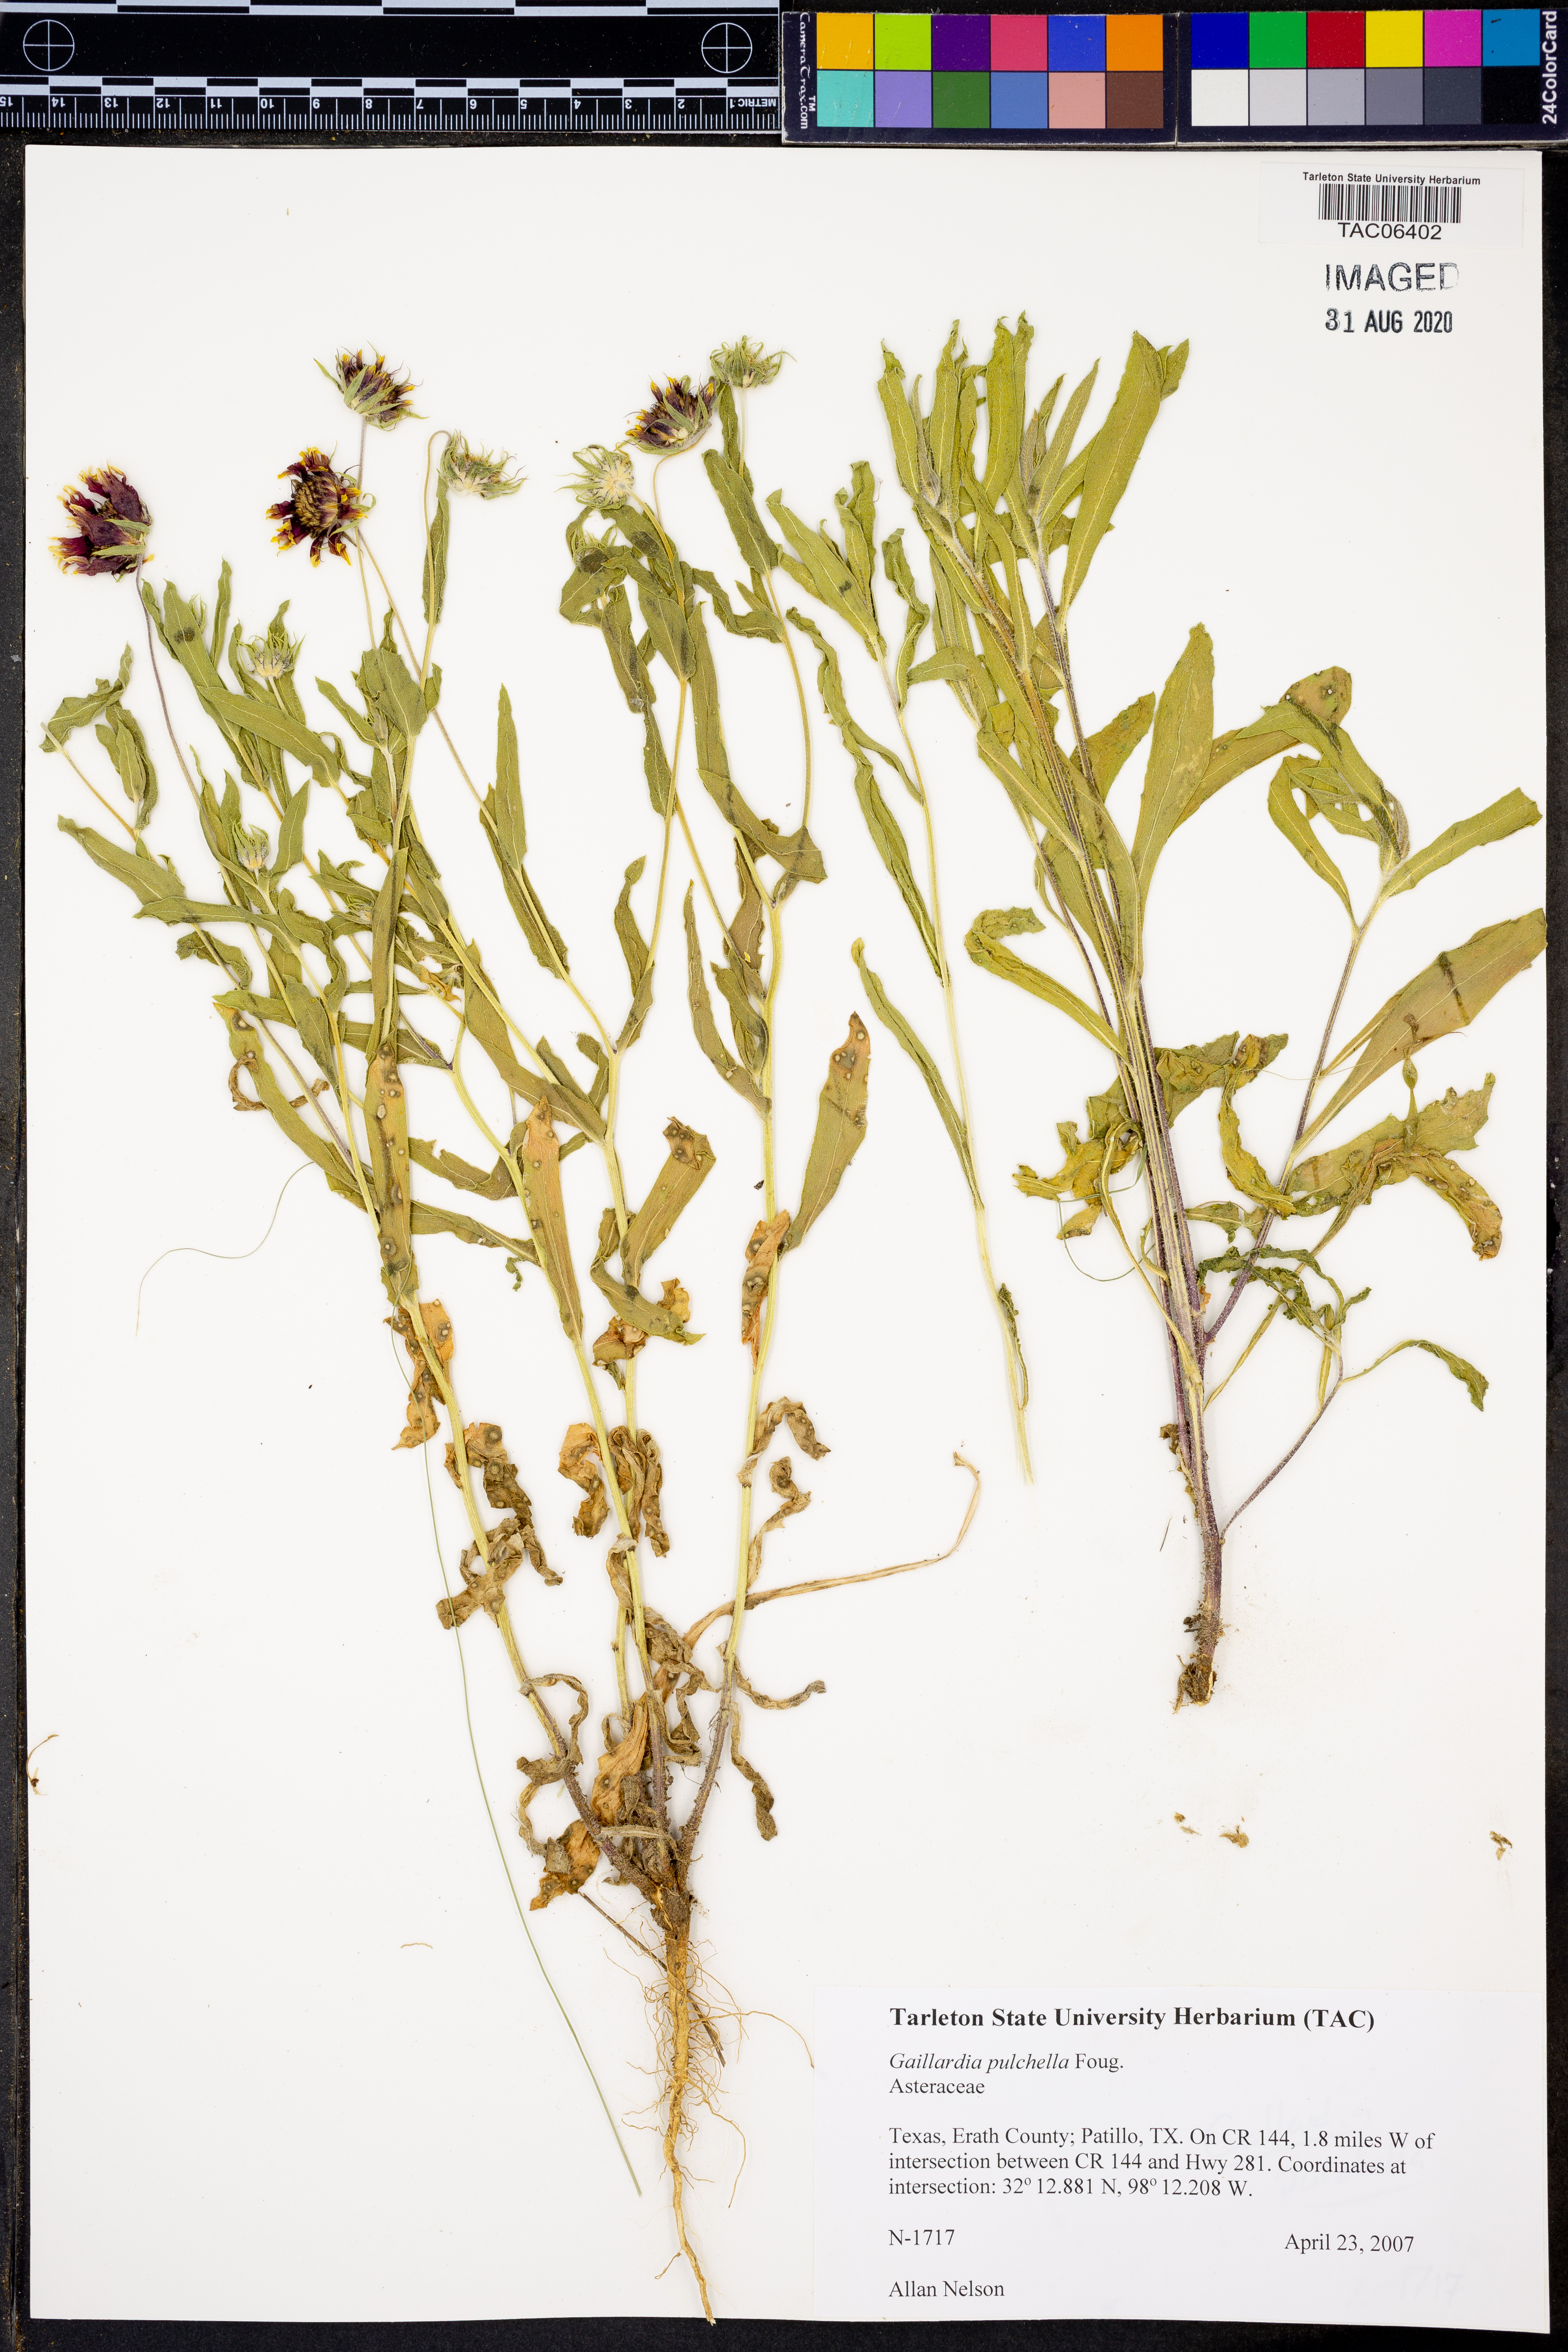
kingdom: Plantae
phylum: Tracheophyta
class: Magnoliopsida
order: Asterales
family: Asteraceae
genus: Gaillardia
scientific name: Gaillardia pulchella
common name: Firewheel
